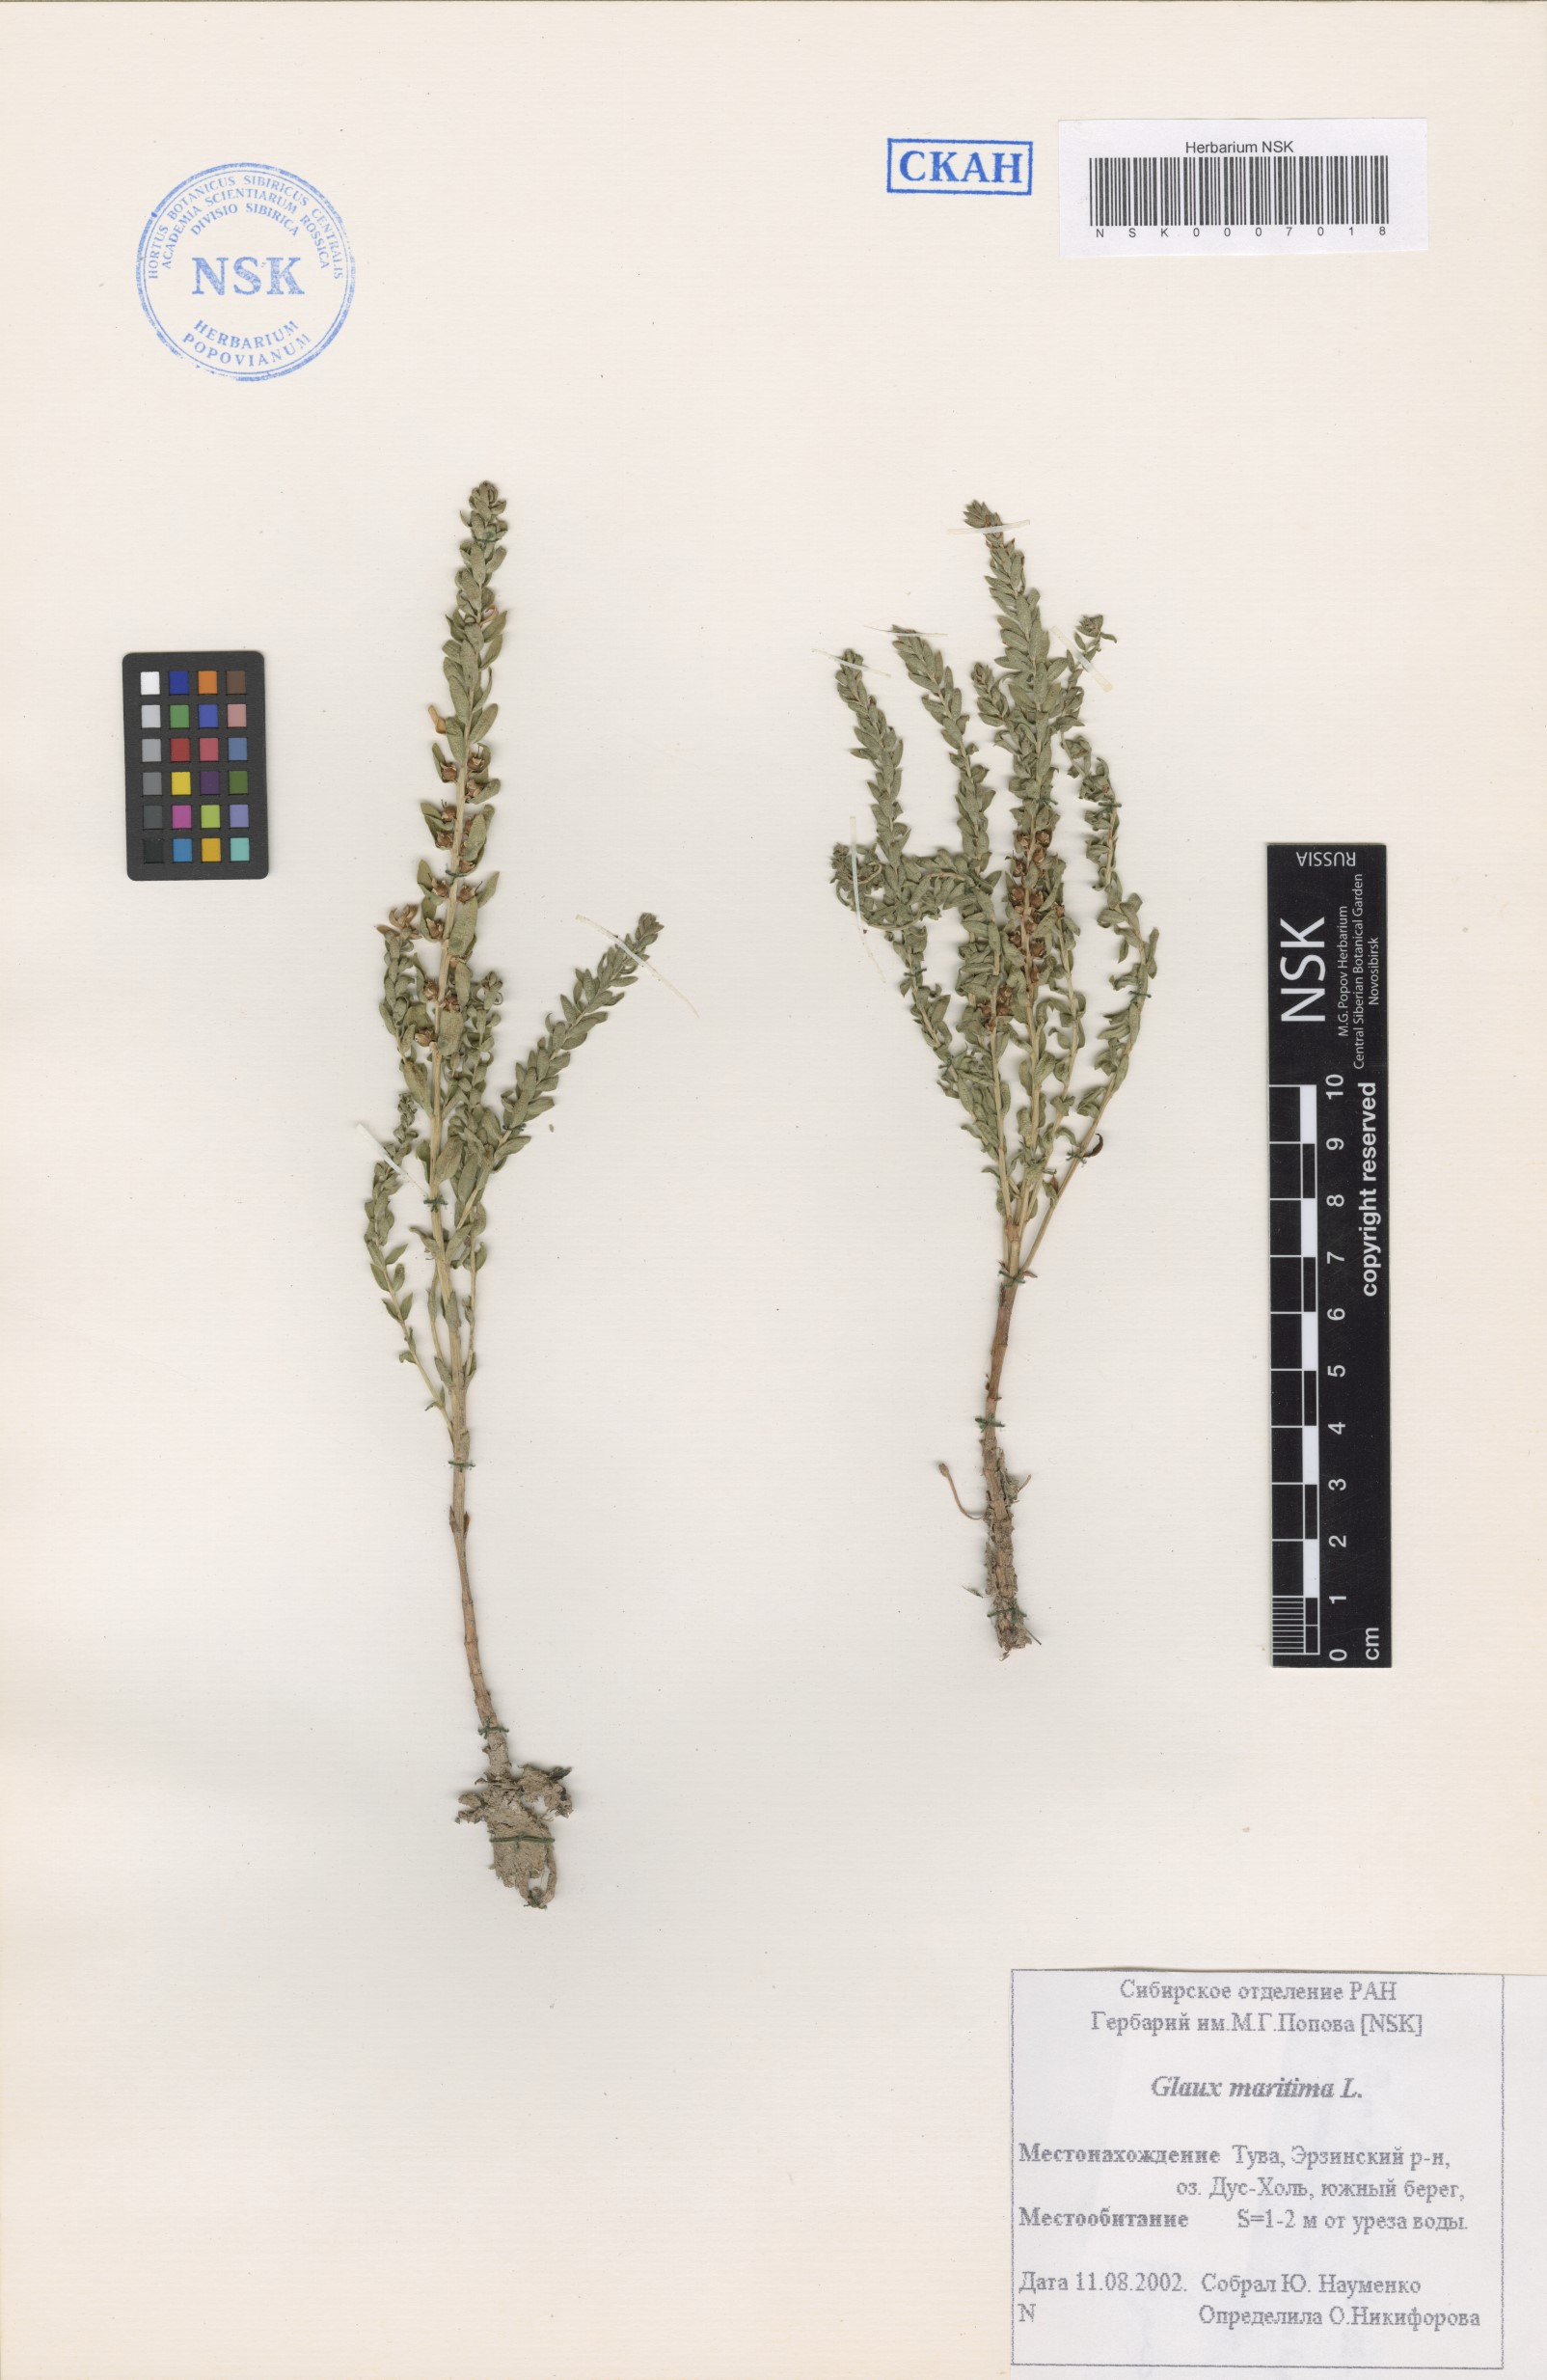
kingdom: Plantae
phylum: Tracheophyta
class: Magnoliopsida
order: Ericales
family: Primulaceae
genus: Lysimachia
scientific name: Lysimachia maritima
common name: Sea milkwort
